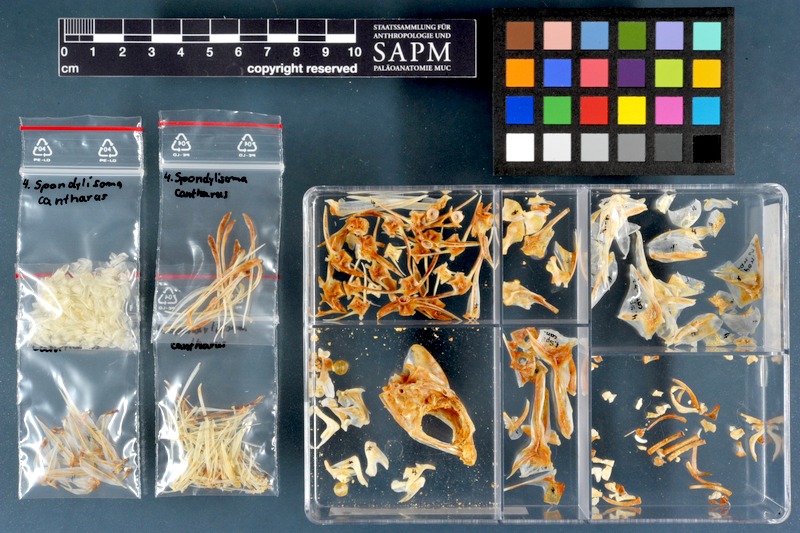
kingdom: Animalia
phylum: Chordata
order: Perciformes
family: Sparidae
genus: Spondyliosoma
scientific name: Spondyliosoma cantharus
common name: Black seabream
